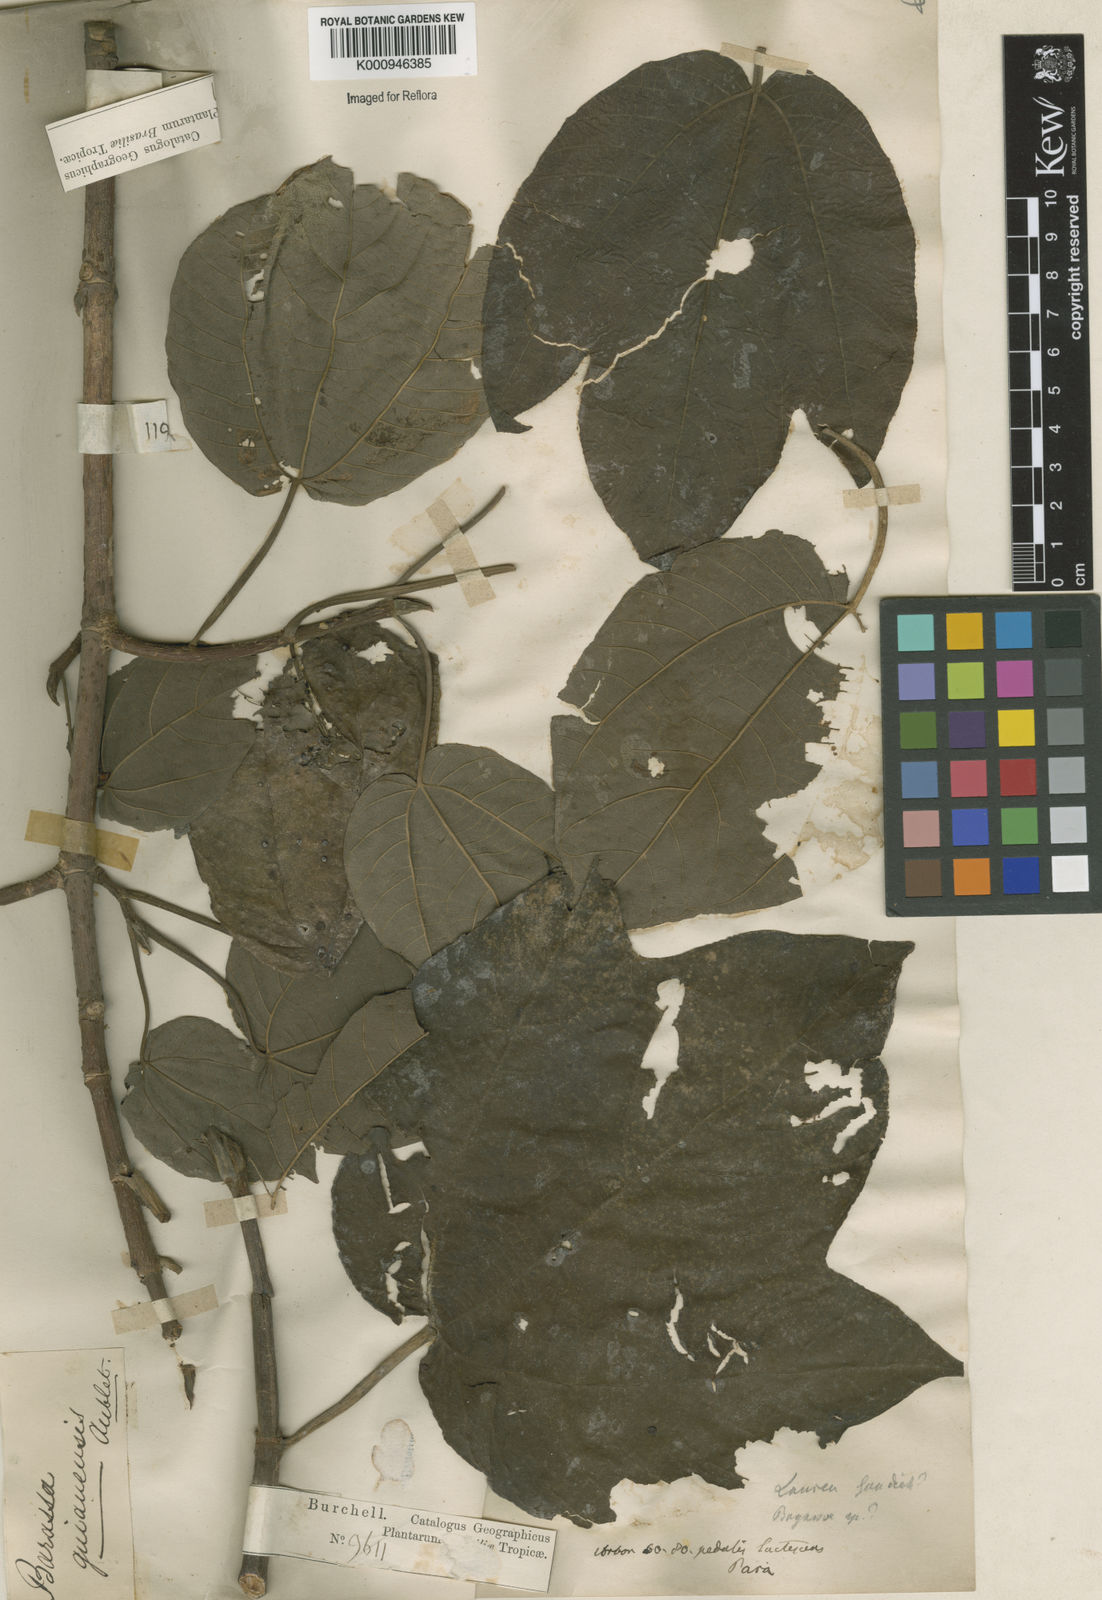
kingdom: Plantae
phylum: Tracheophyta
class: Magnoliopsida
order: Rosales
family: Moraceae
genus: Bagassa
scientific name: Bagassa guianensis
